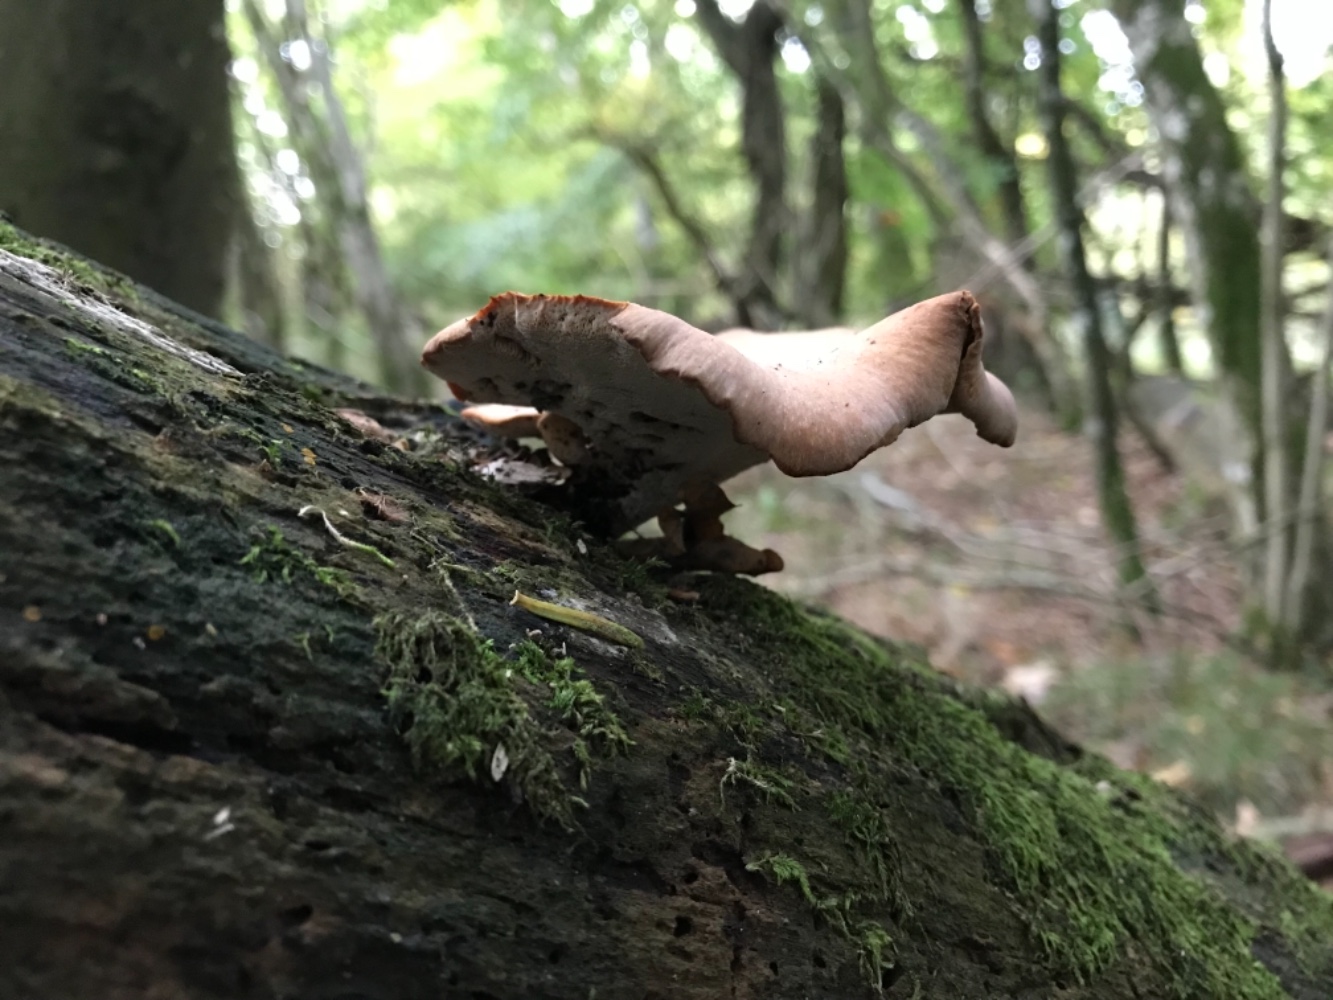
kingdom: Fungi
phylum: Basidiomycota
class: Agaricomycetes
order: Polyporales
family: Polyporaceae
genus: Cerioporus
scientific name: Cerioporus varius
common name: foranderlig stilkporesvamp
